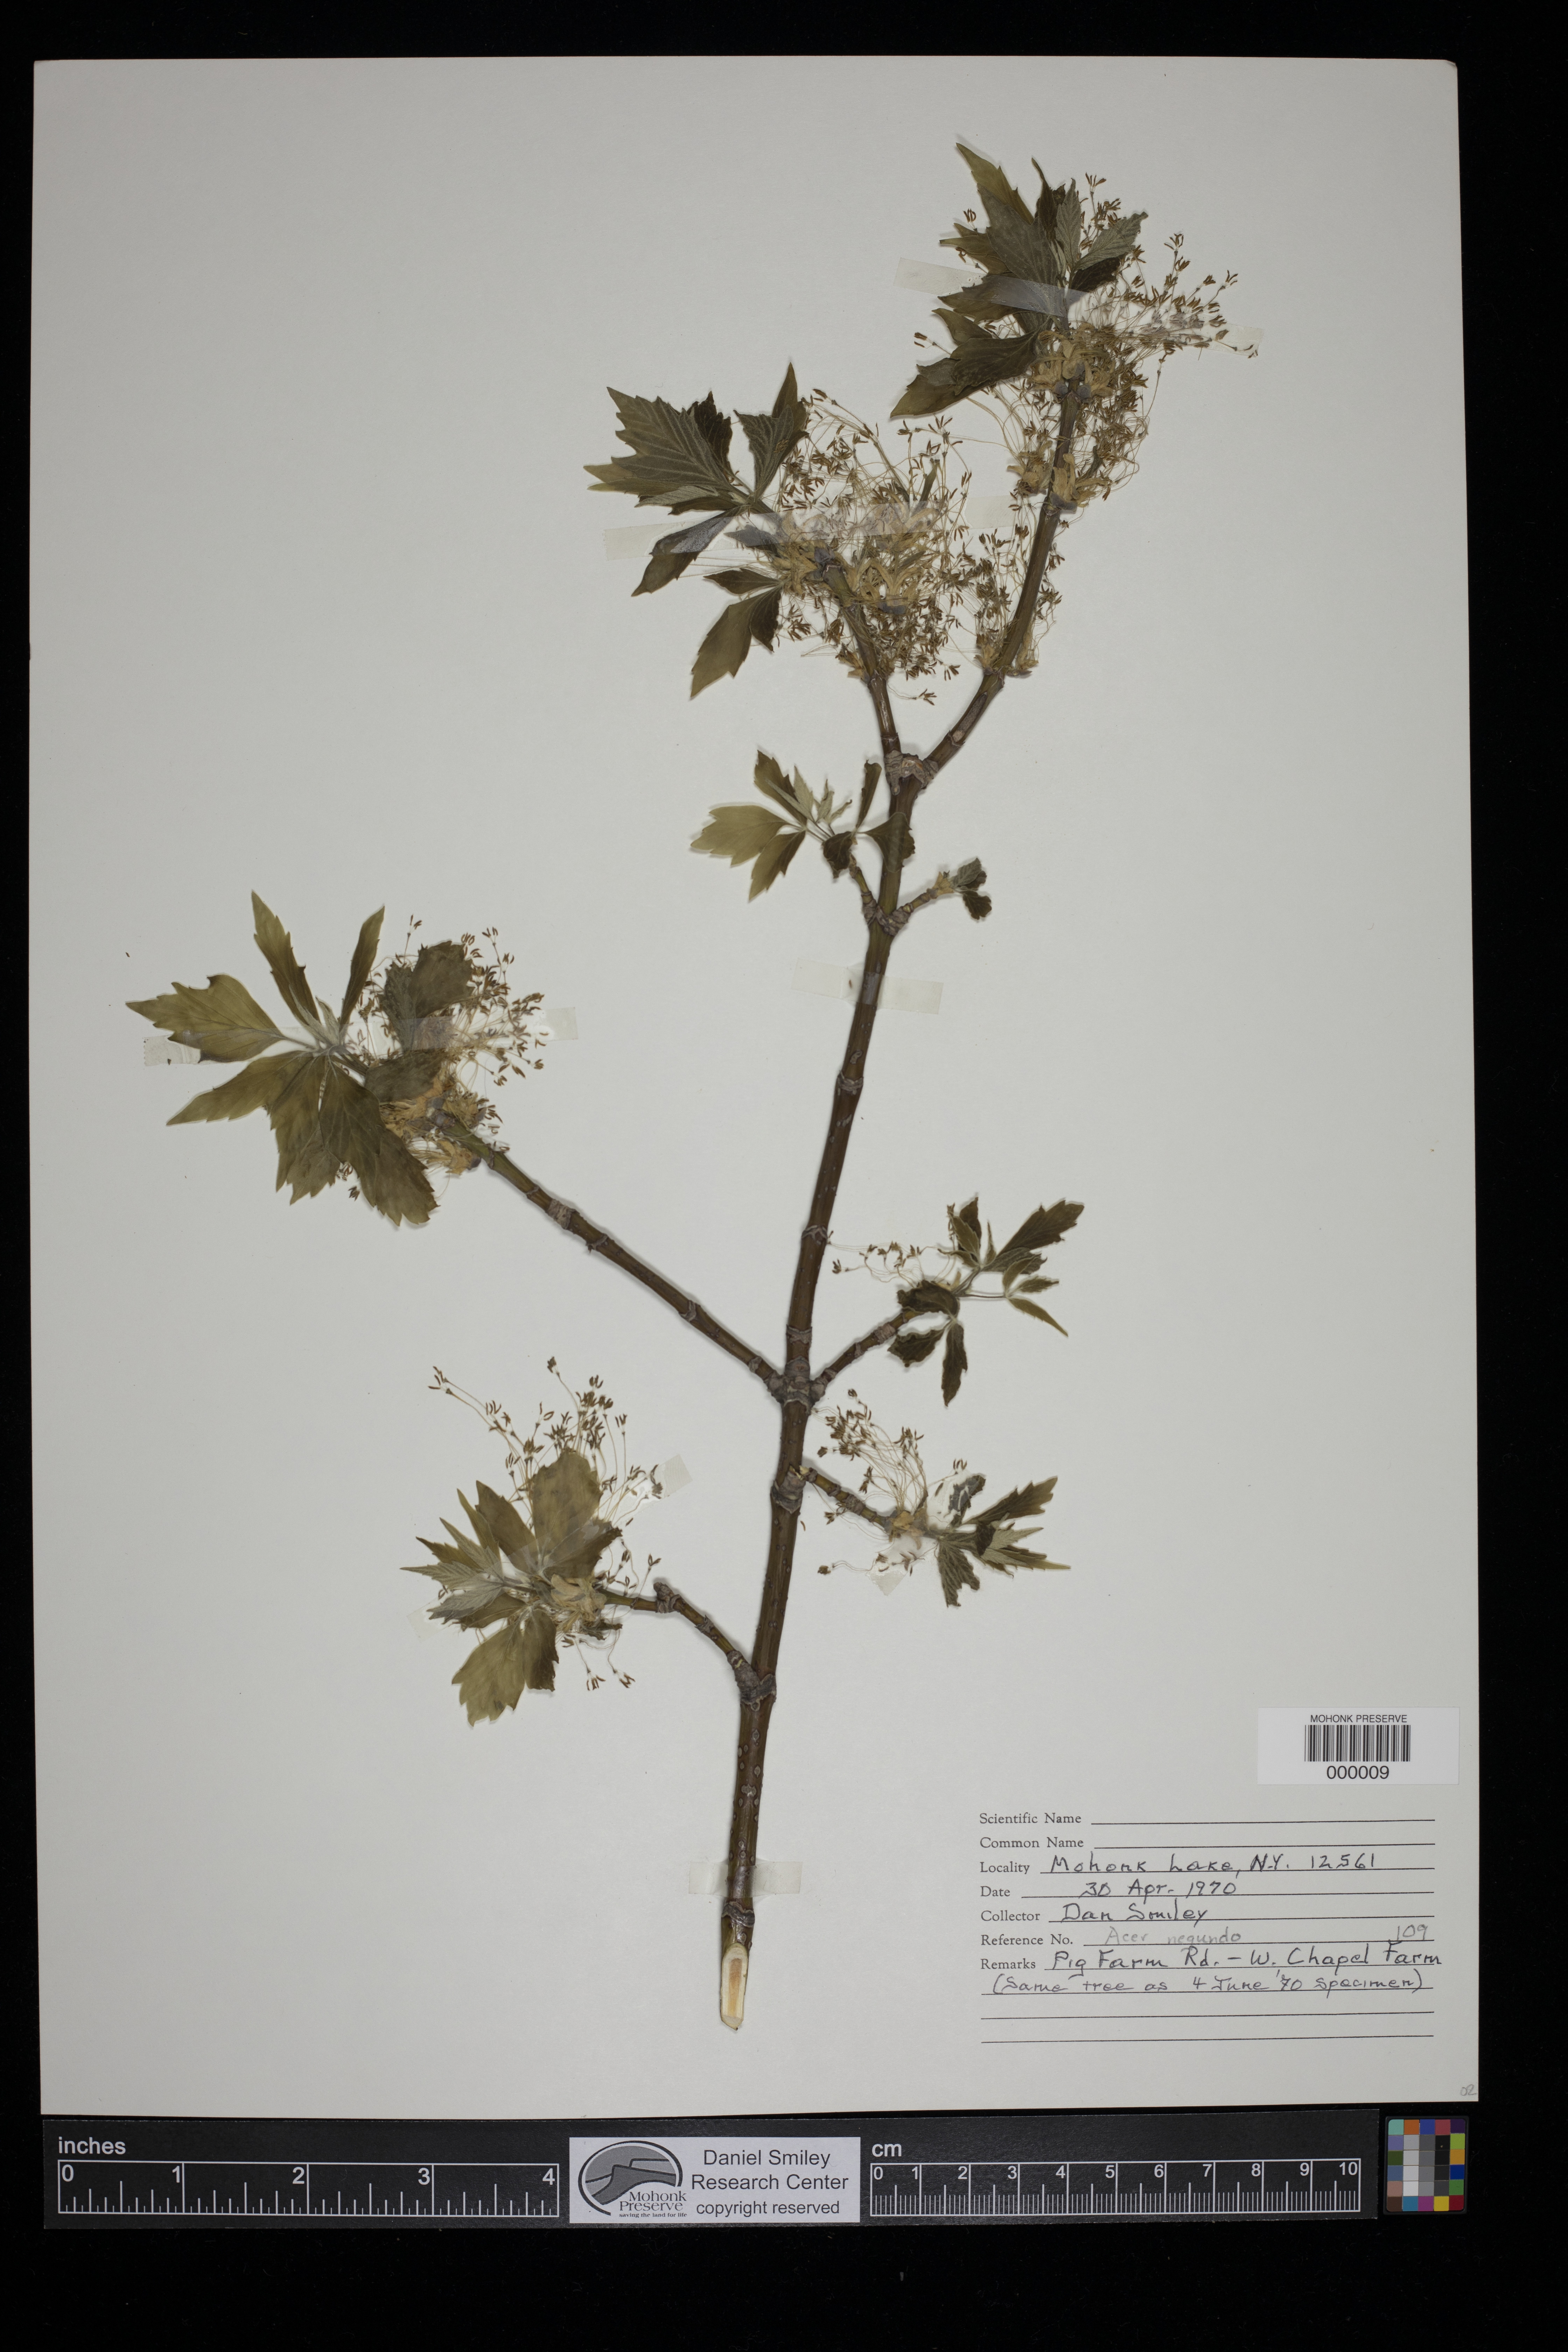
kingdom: Plantae
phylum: Tracheophyta
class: Magnoliopsida
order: Sapindales
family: Sapindaceae
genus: Acer
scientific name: Acer negundo
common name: Ashleaf maple
